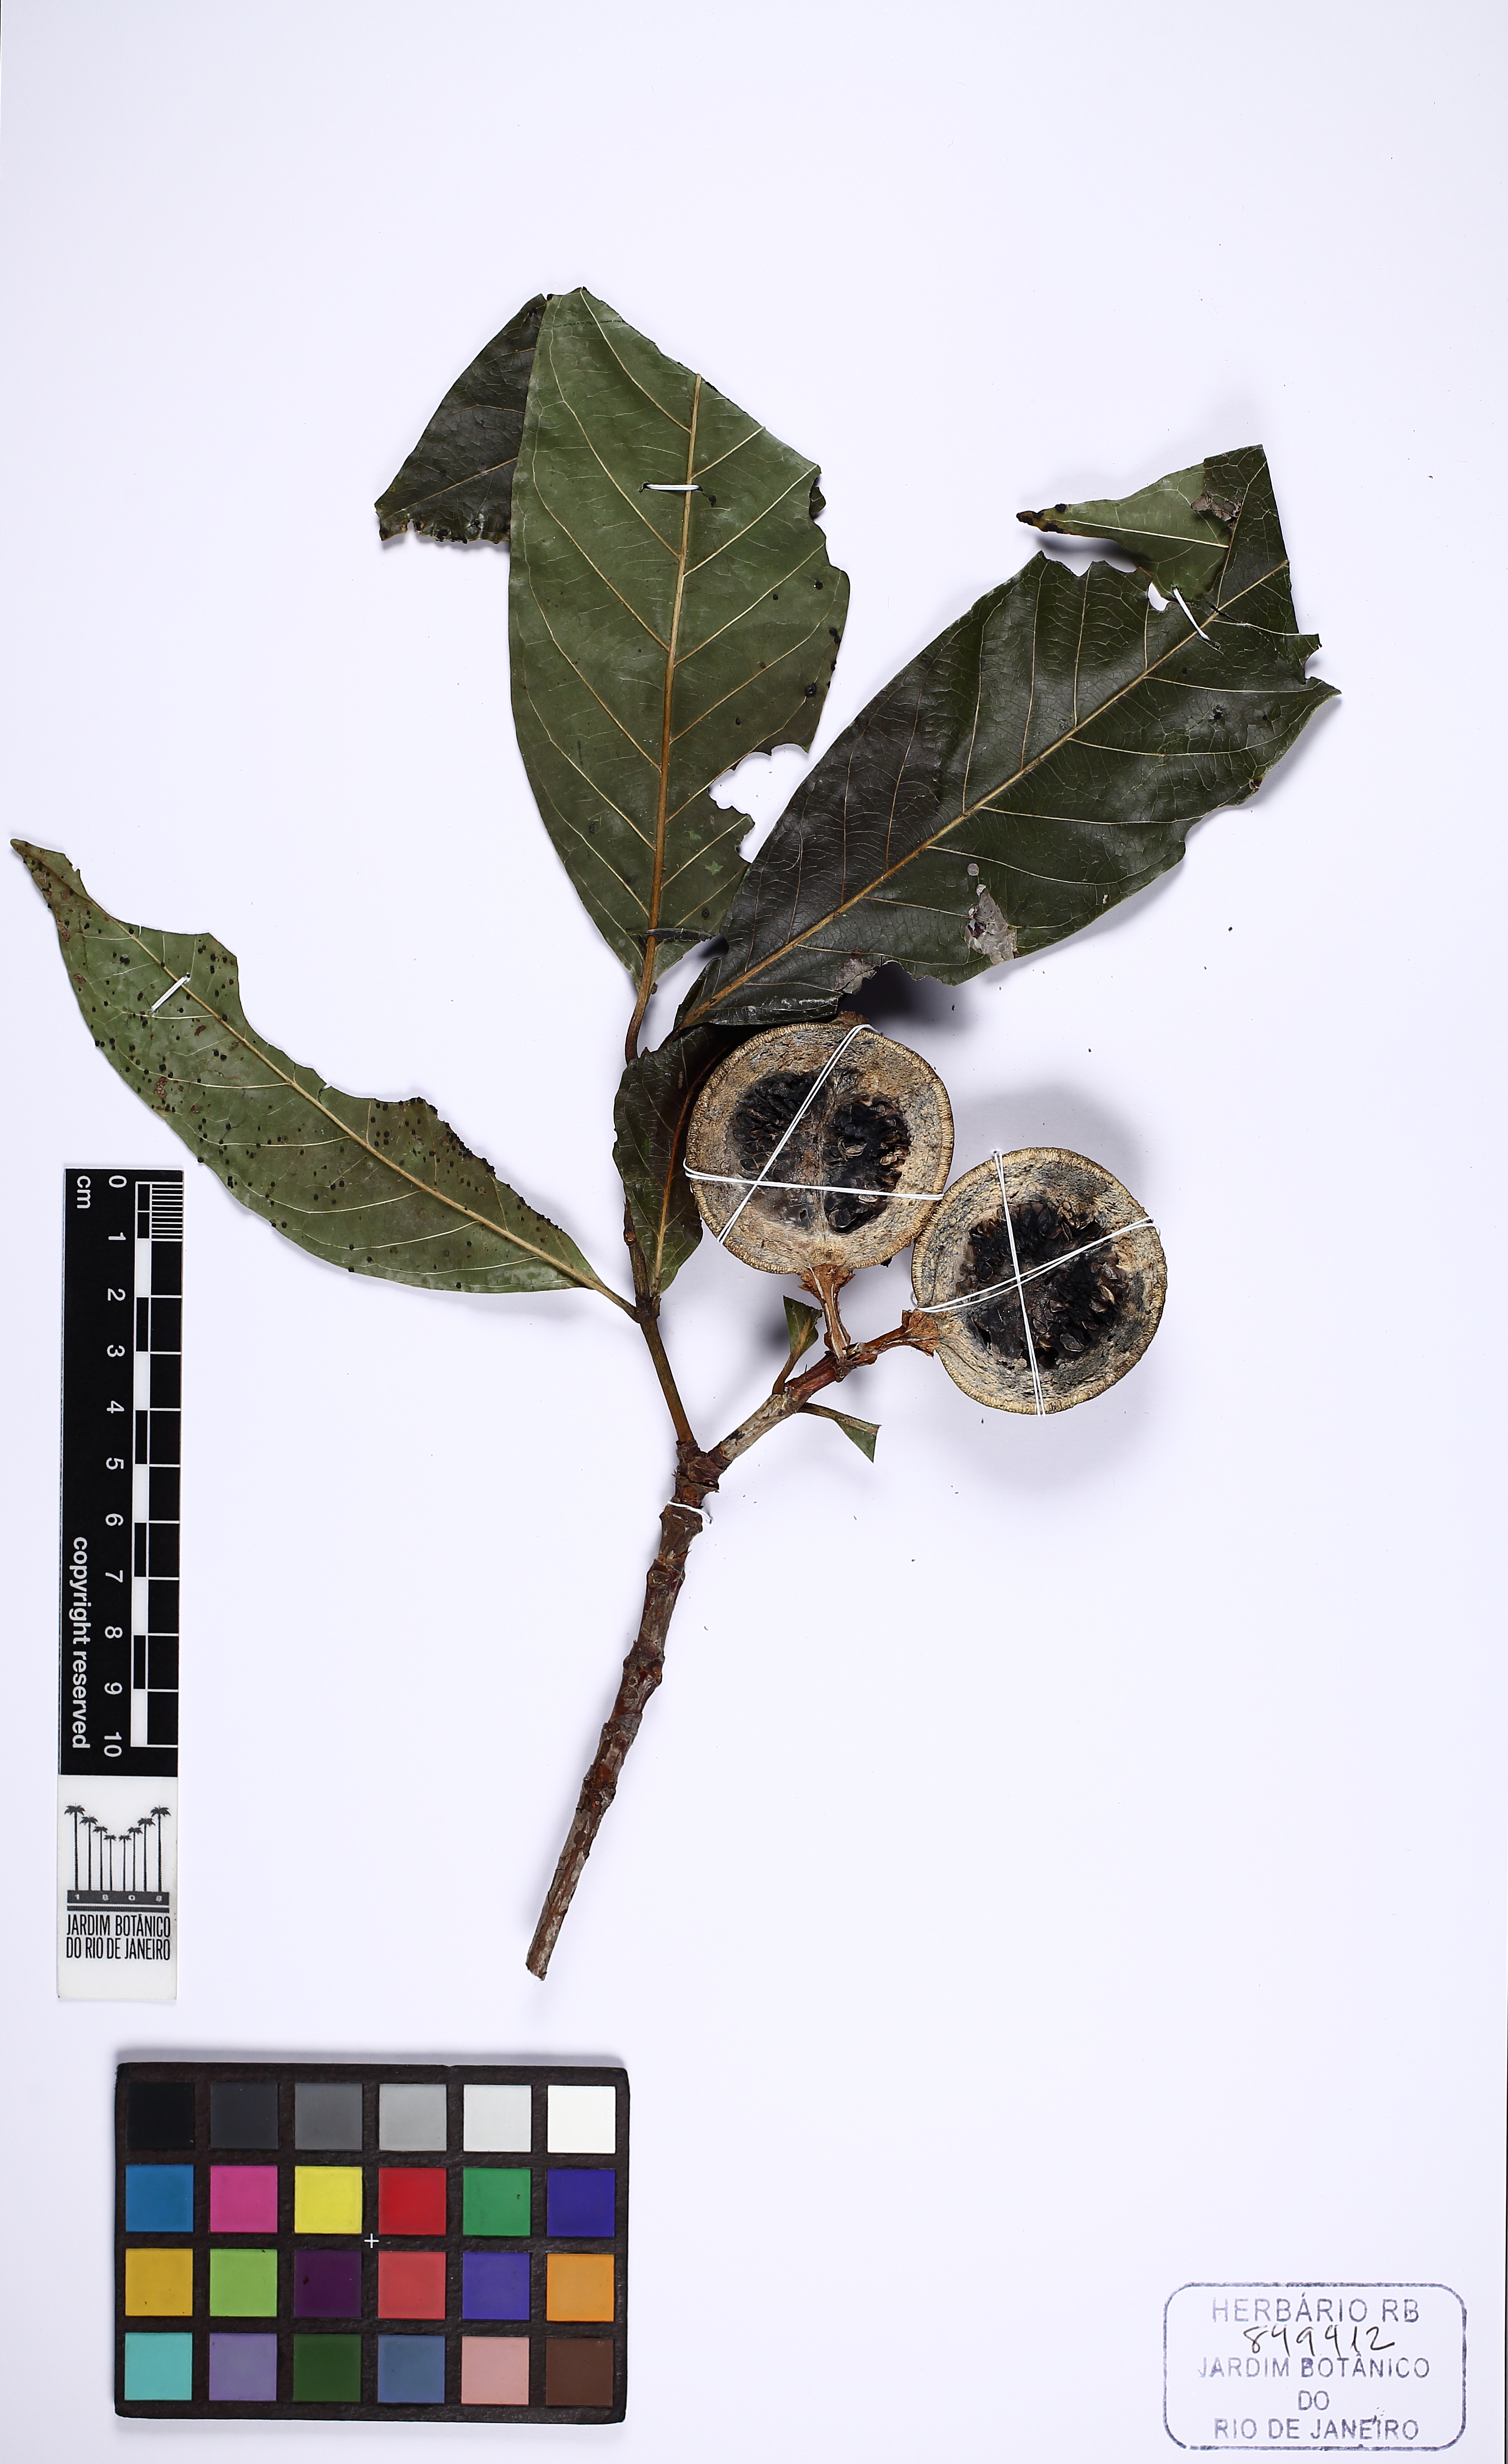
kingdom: Plantae
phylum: Tracheophyta
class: Magnoliopsida
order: Gentianales
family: Rubiaceae
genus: Alibertia
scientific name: Alibertia edulis
